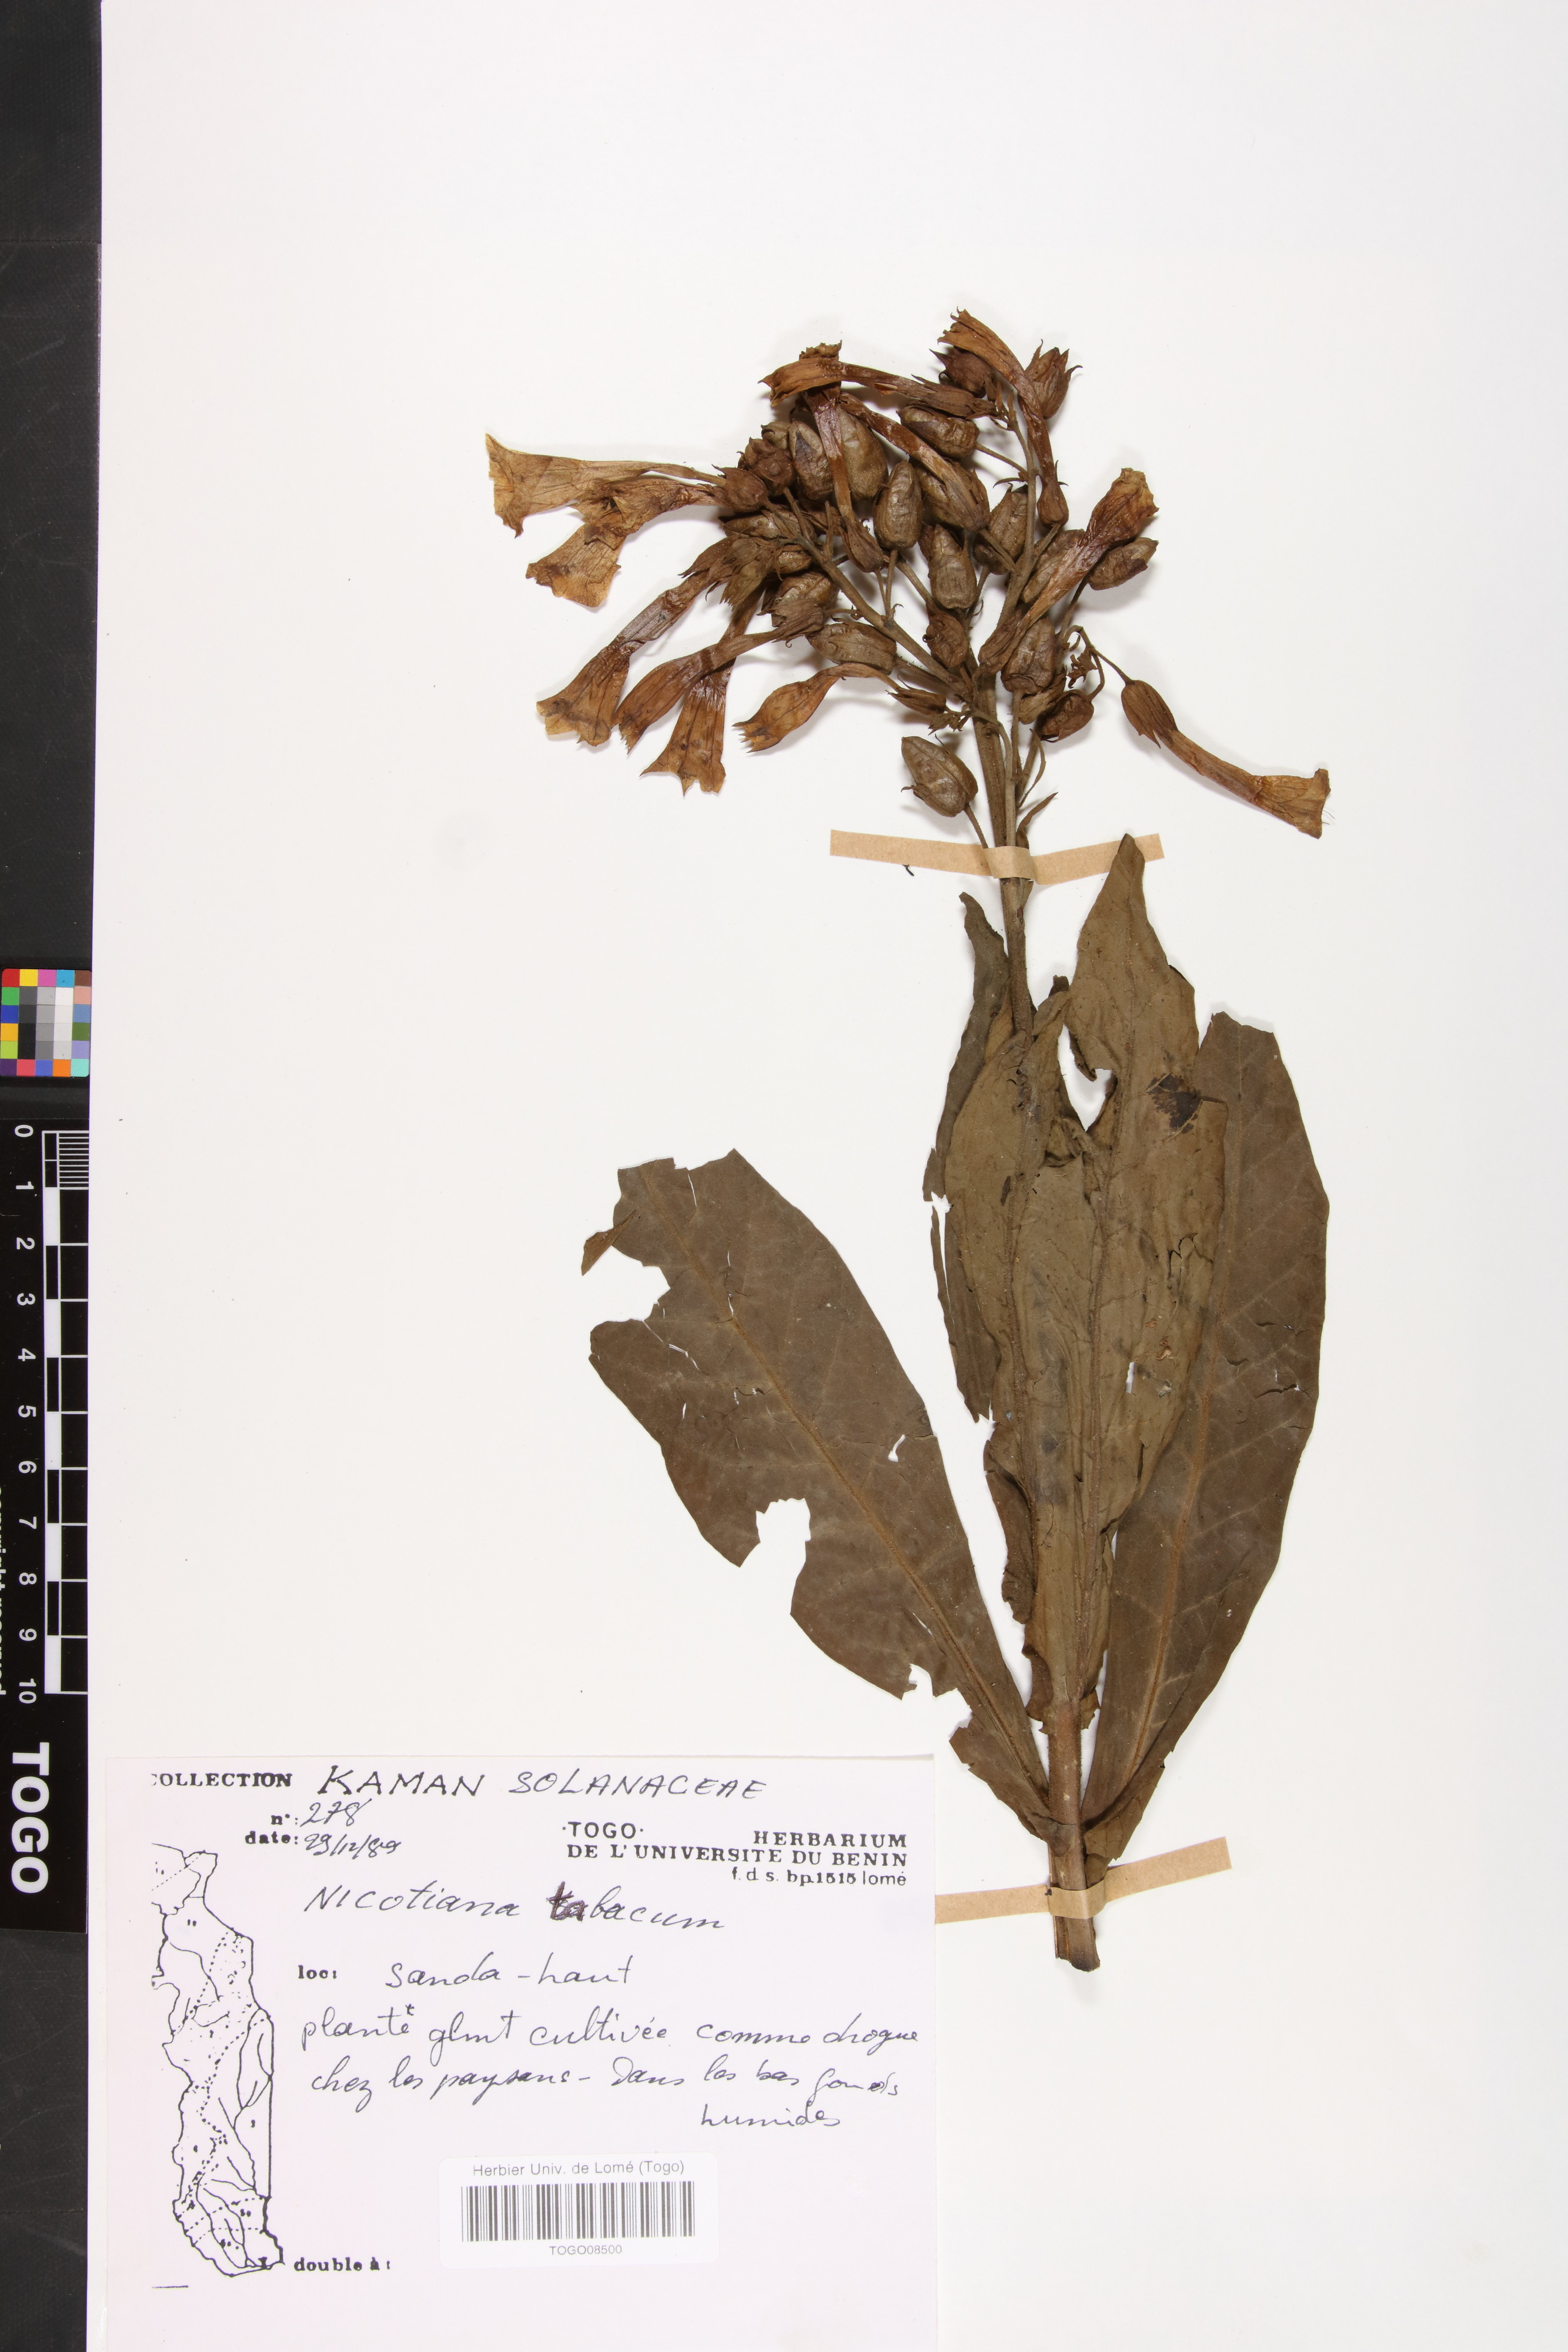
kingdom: Plantae
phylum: Tracheophyta
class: Magnoliopsida
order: Solanales
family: Solanaceae
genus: Nicotiana
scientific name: Nicotiana tabacum
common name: Tobacco
